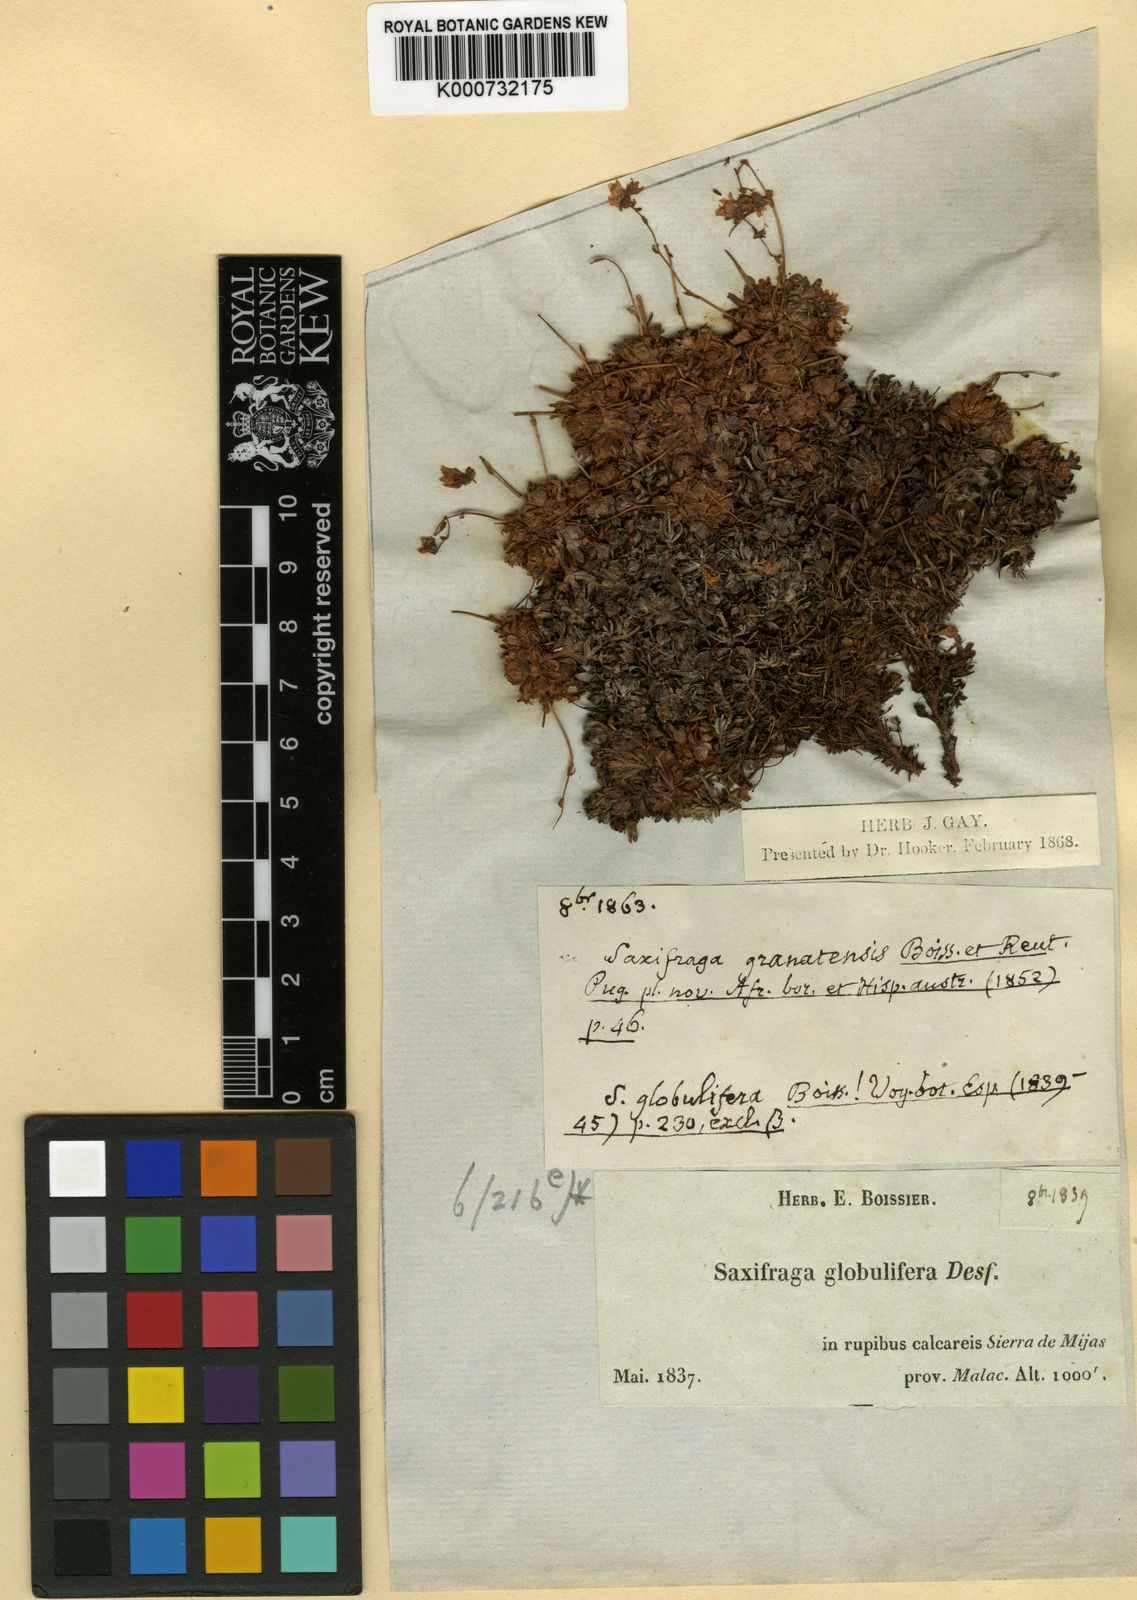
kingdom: Plantae
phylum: Tracheophyta
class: Magnoliopsida
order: Saxifragales
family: Saxifragaceae
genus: Saxifraga
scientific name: Saxifraga globulifera
